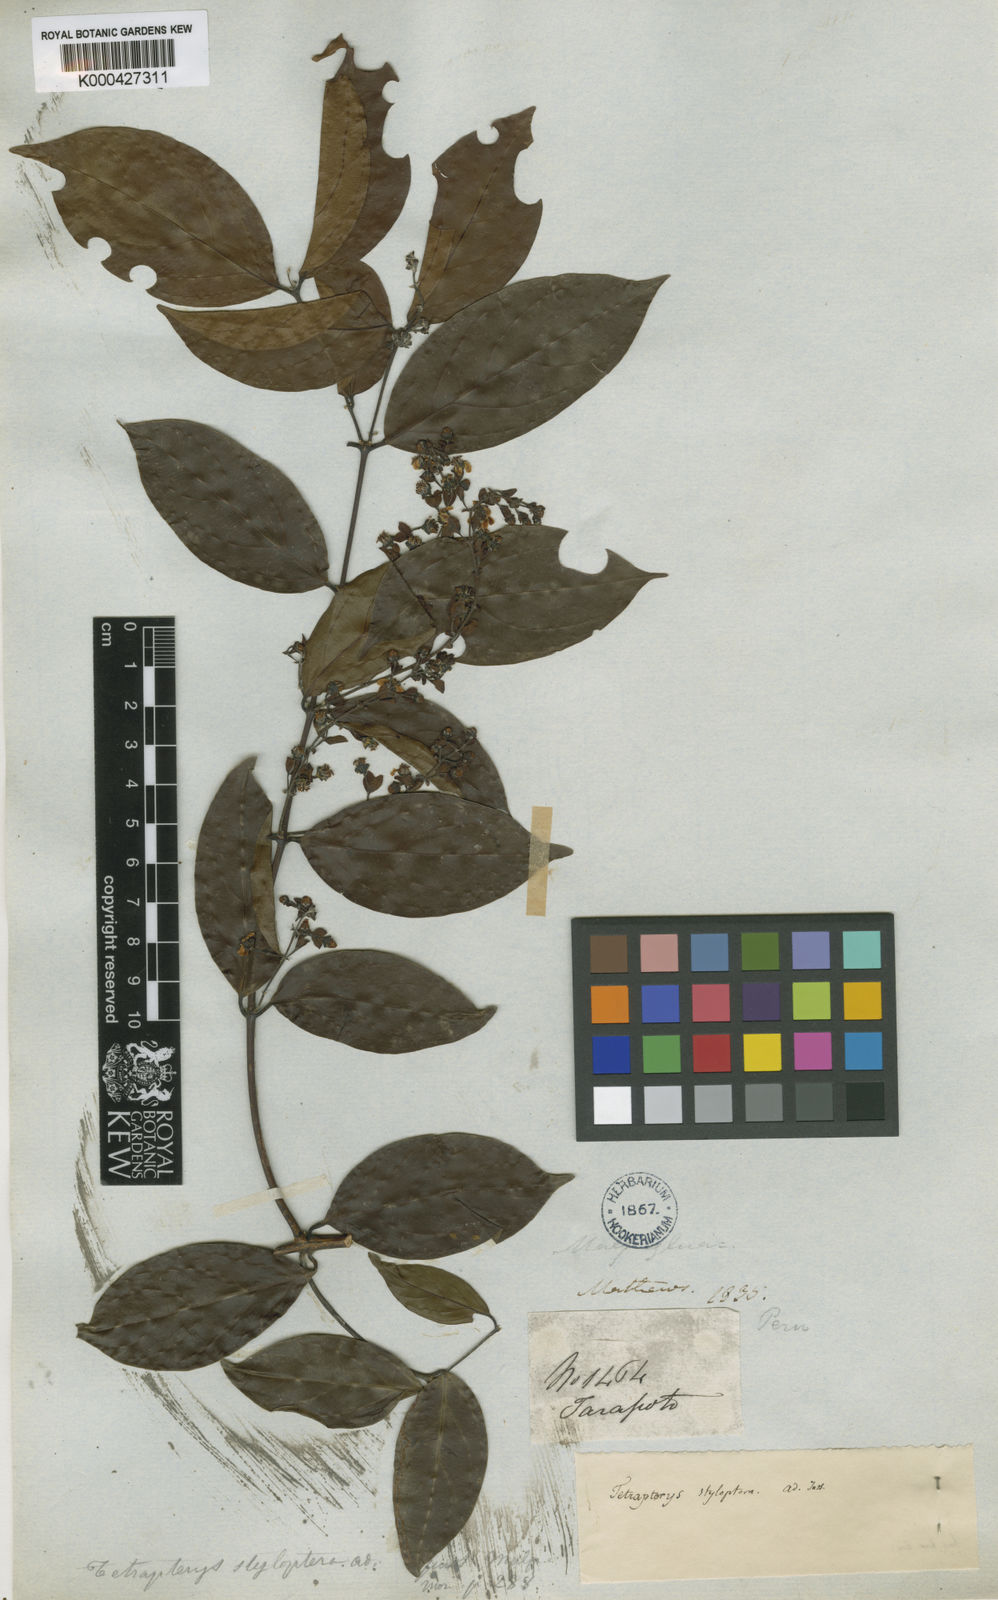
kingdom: Plantae
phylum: Tracheophyta
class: Magnoliopsida
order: Malpighiales
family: Malpighiaceae
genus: Glicophyllum
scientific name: Glicophyllum stylopterum
